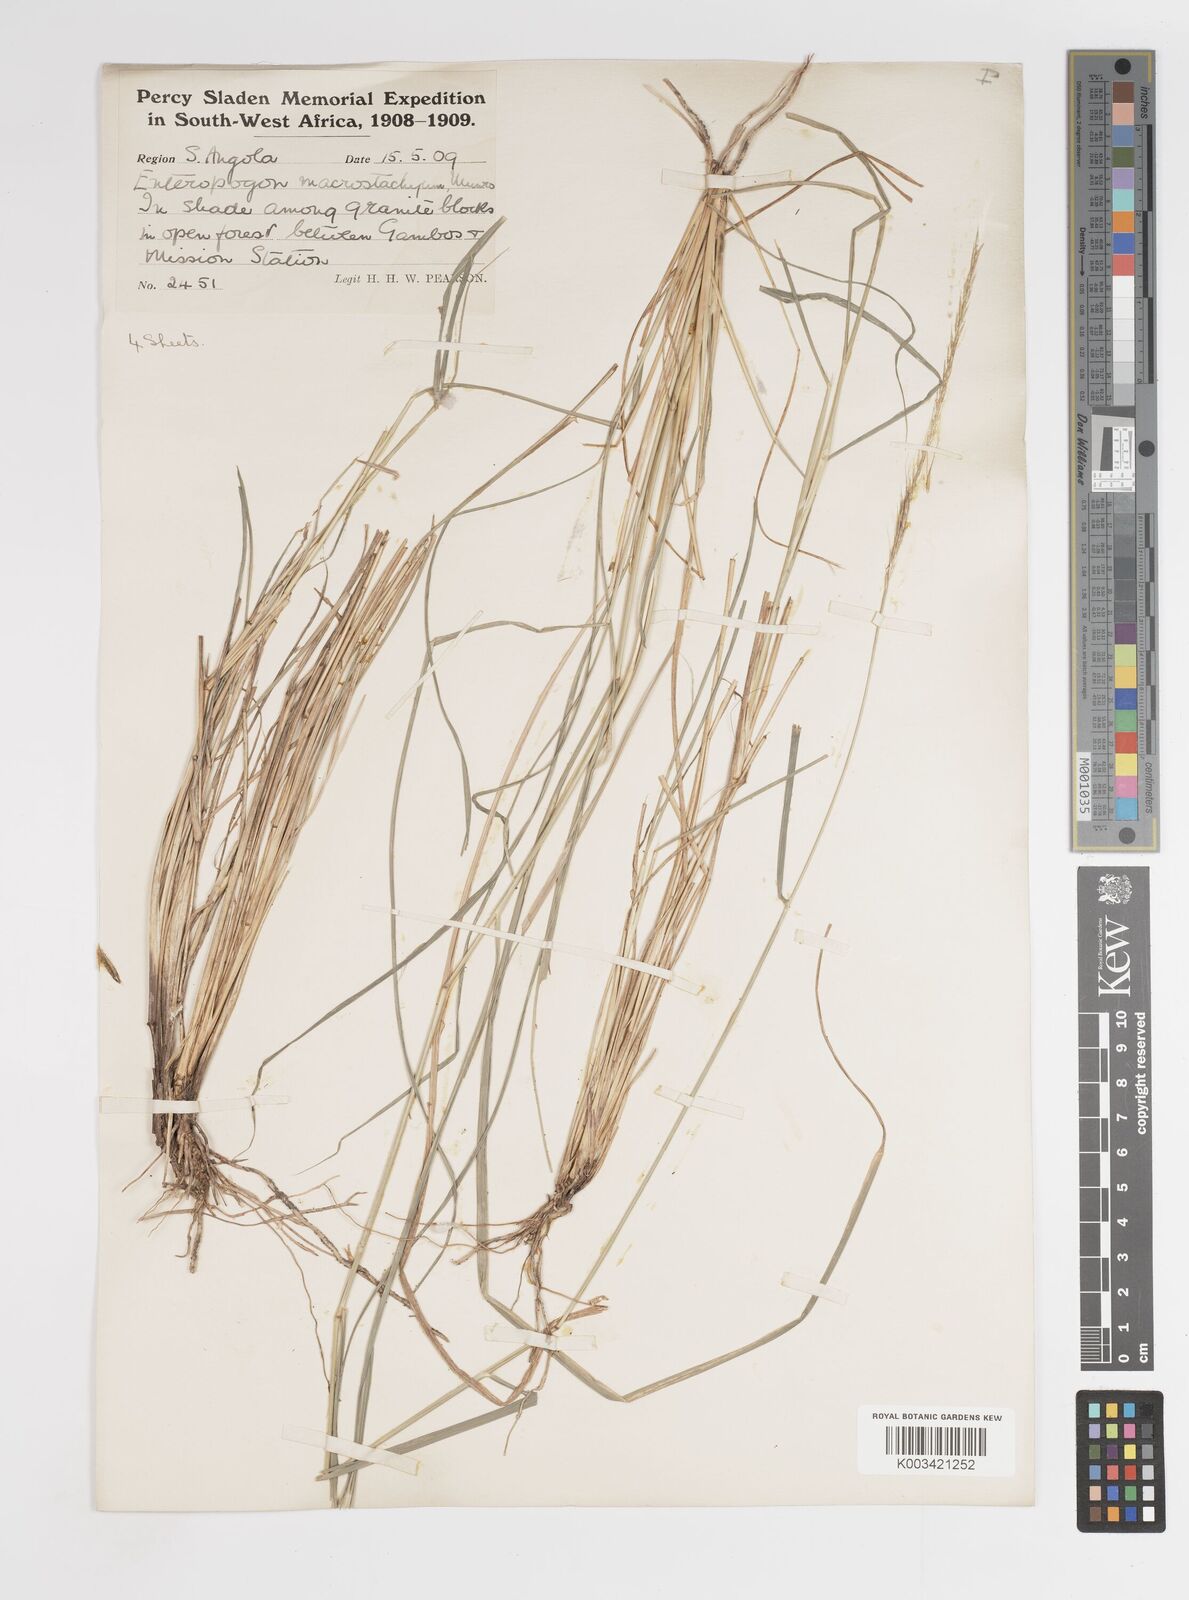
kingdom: Plantae
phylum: Tracheophyta
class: Liliopsida
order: Poales
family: Poaceae
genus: Enteropogon
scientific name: Enteropogon macrostachyus
